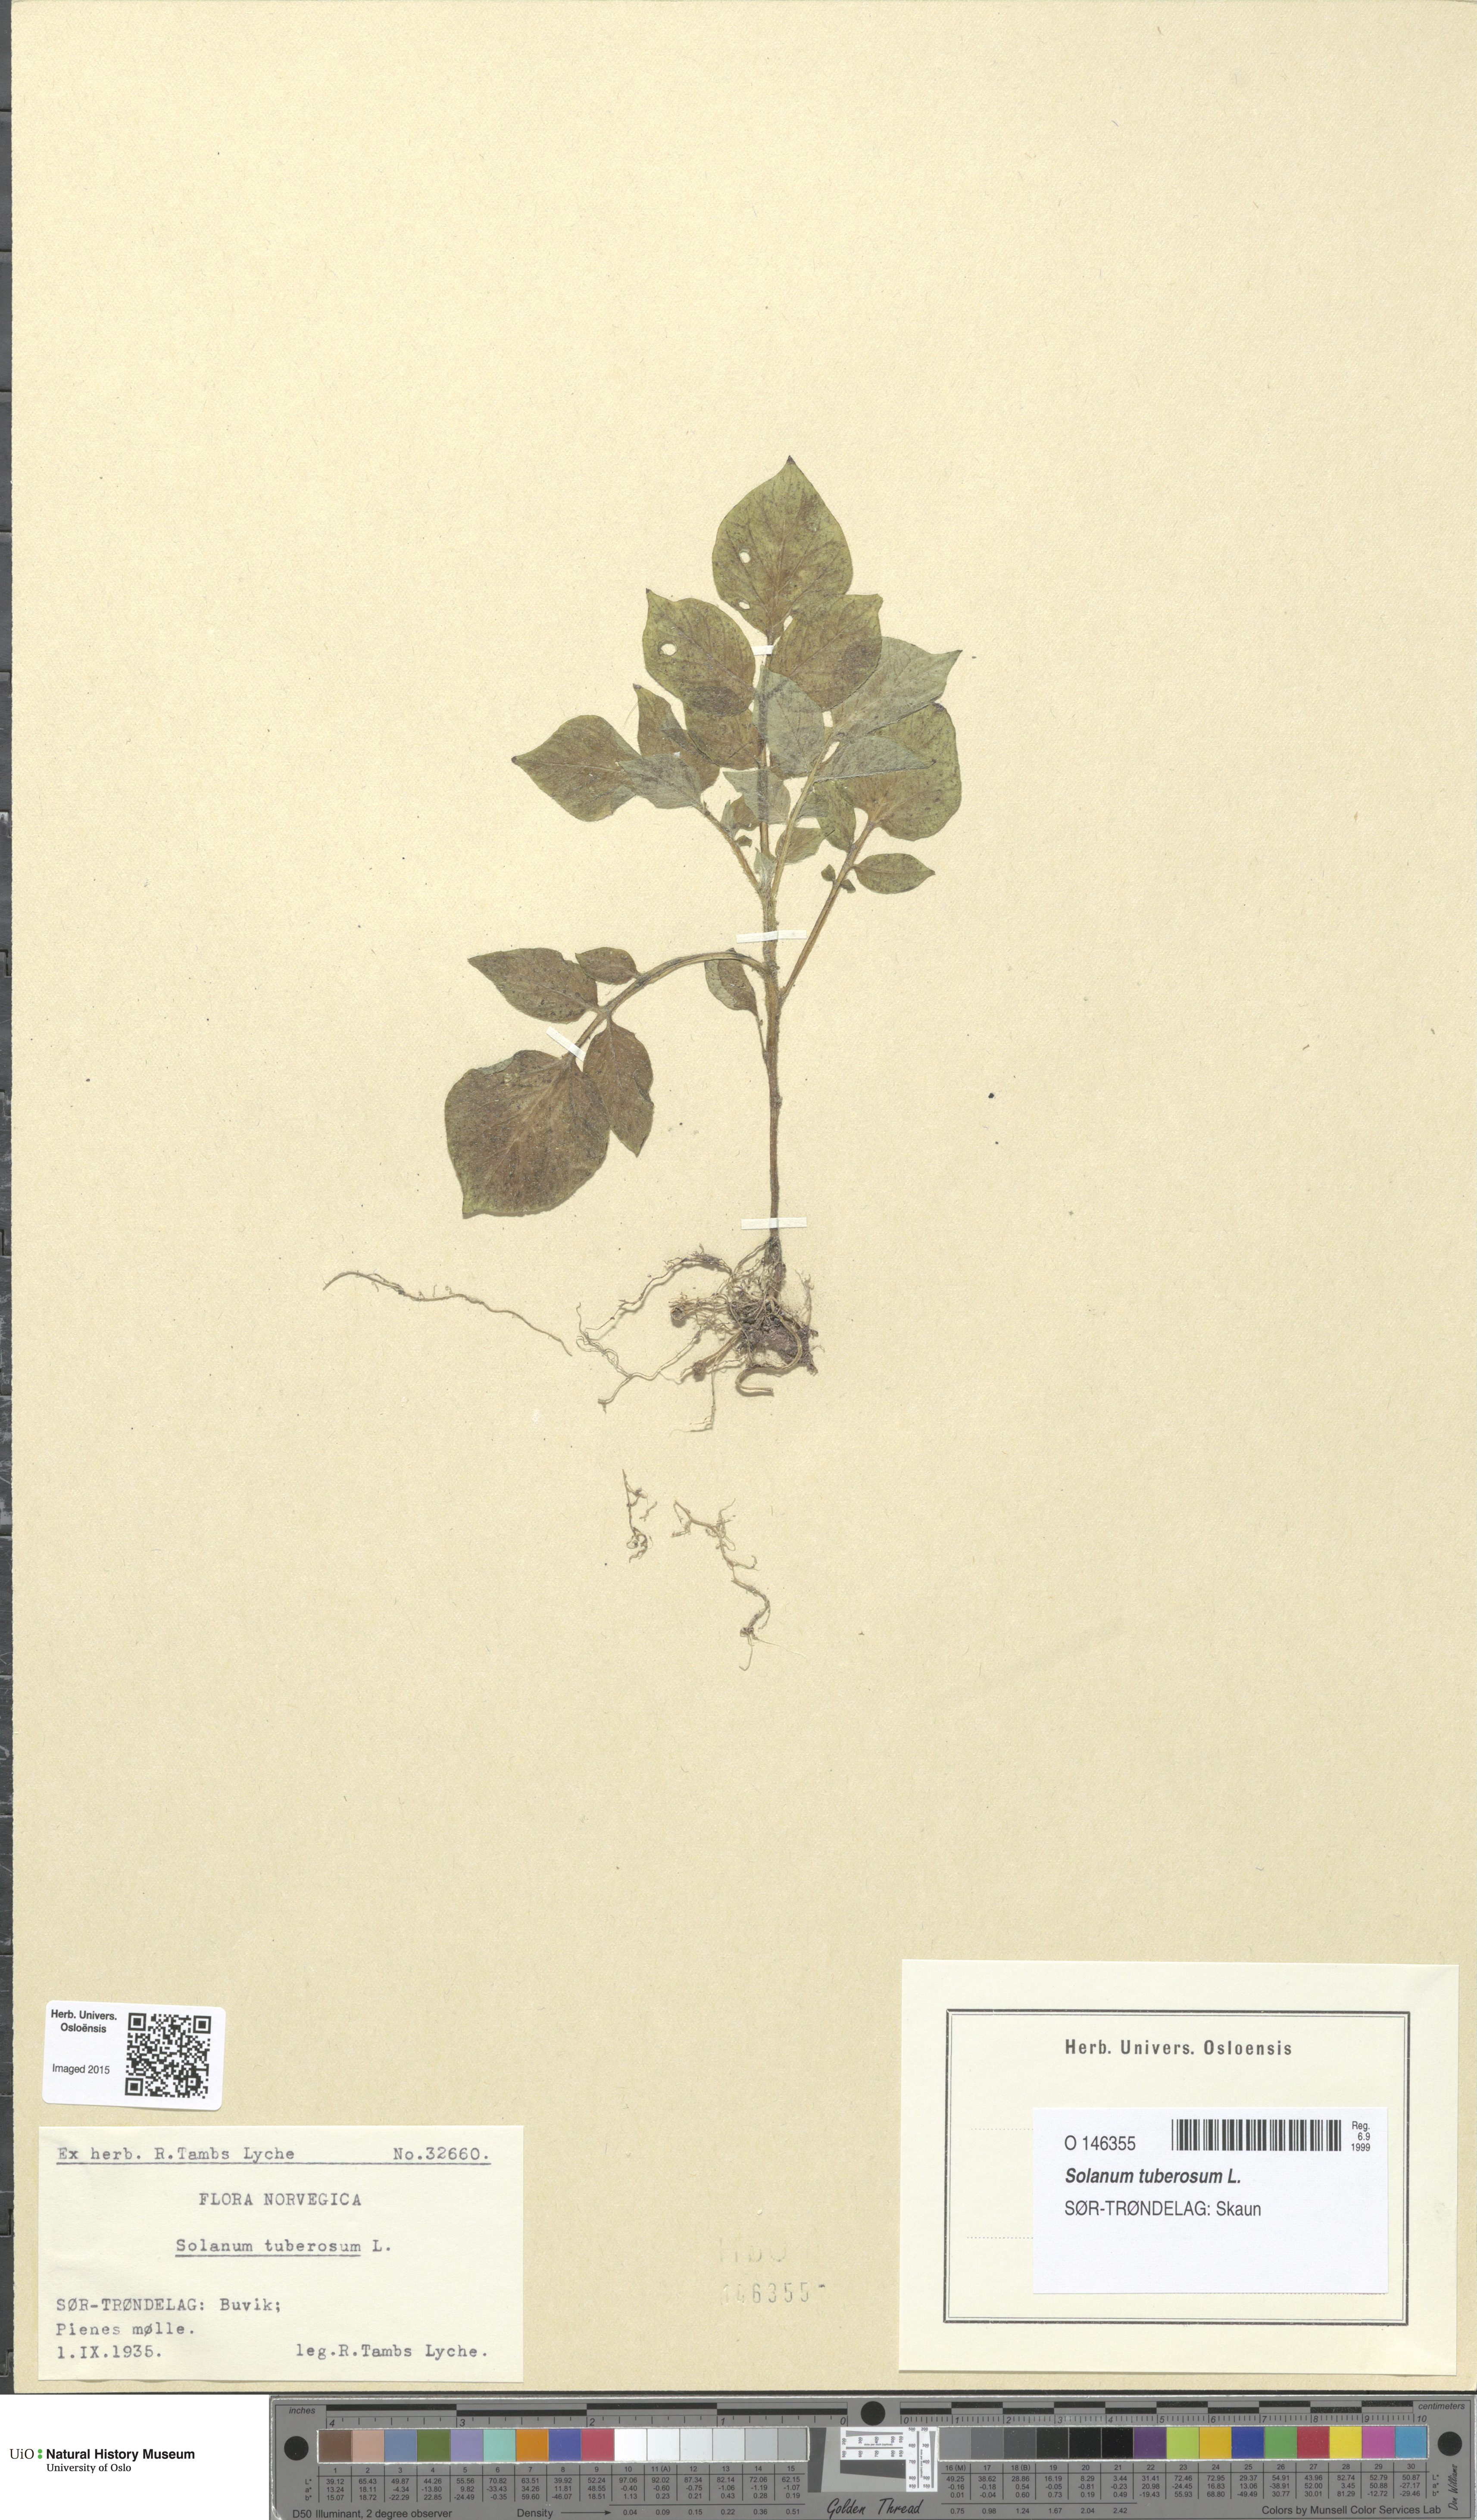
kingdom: Plantae
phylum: Tracheophyta
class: Magnoliopsida
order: Solanales
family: Solanaceae
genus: Solanum
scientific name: Solanum tuberosum
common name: Potato
